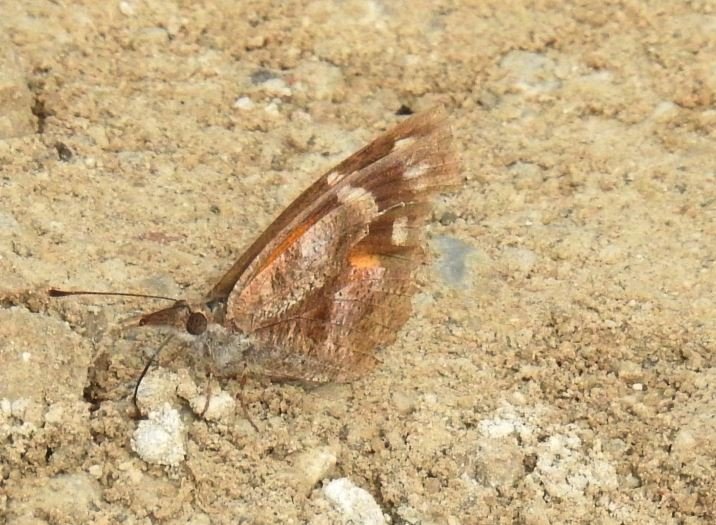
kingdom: Animalia
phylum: Arthropoda
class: Insecta
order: Lepidoptera
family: Nymphalidae
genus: Libytheana
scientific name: Libytheana carinenta
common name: American Snout
